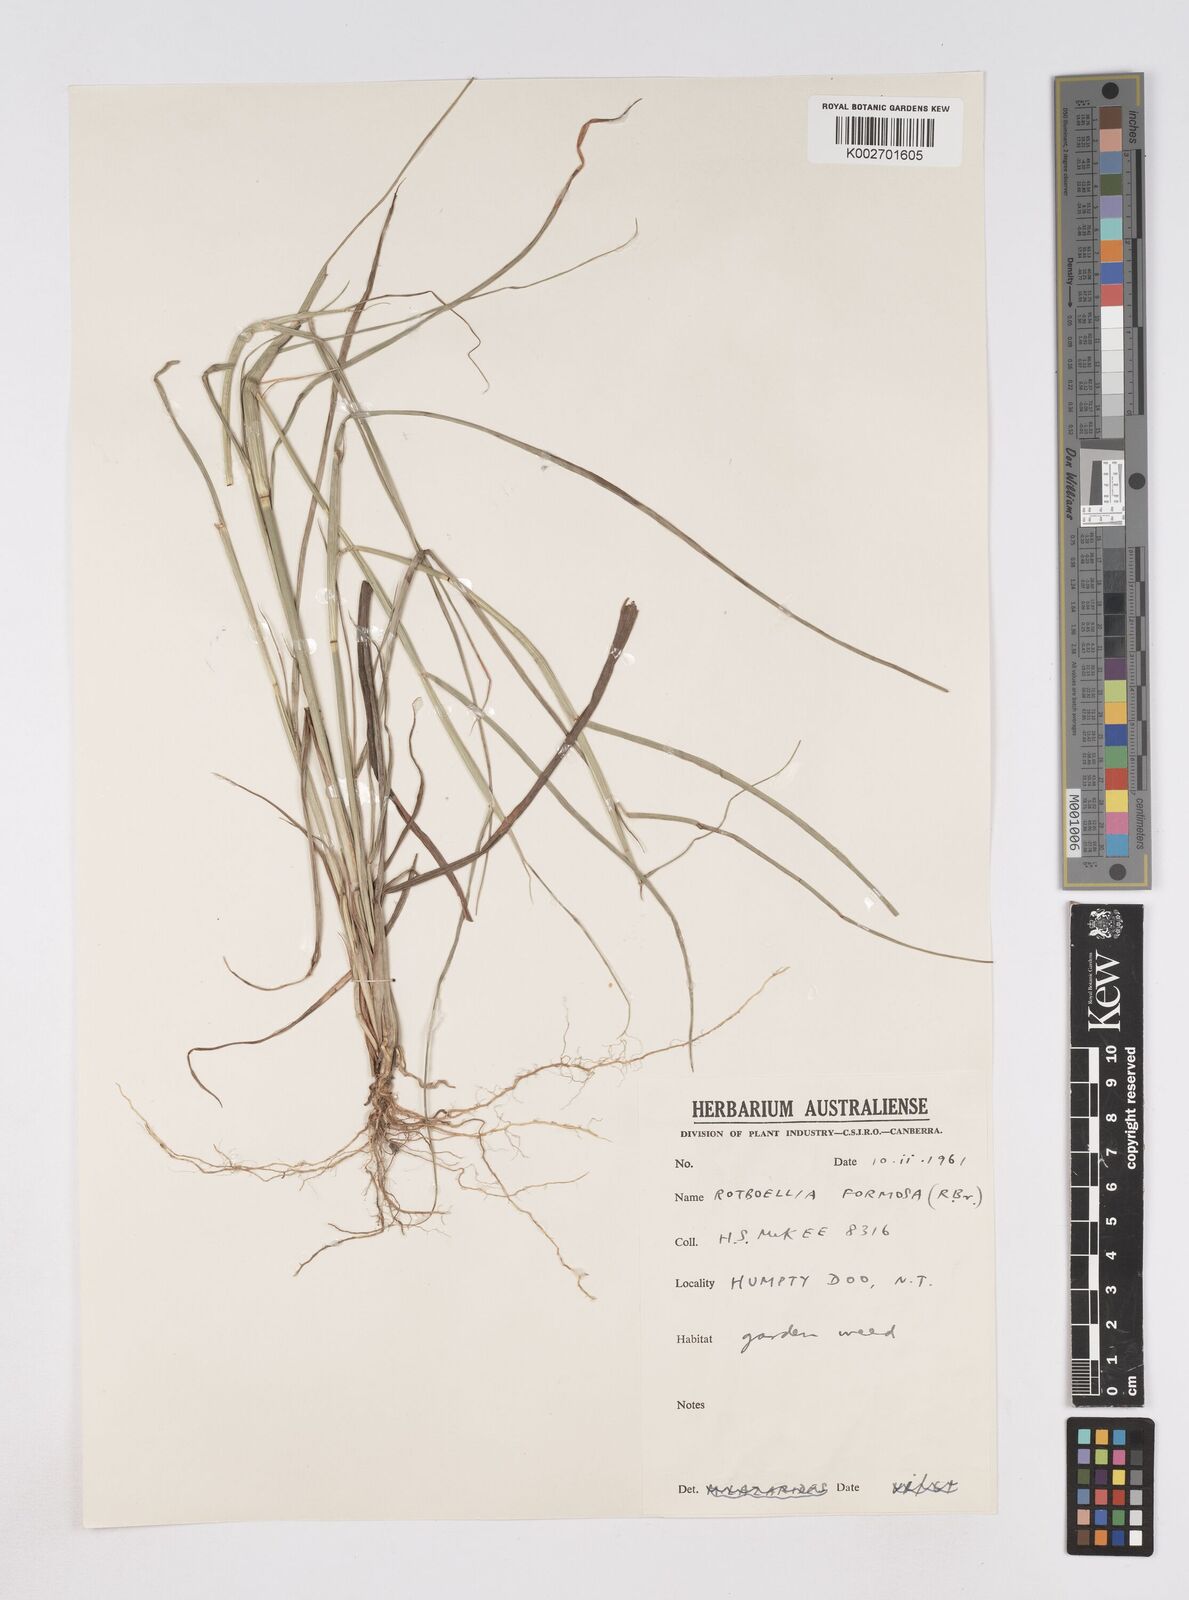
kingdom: Plantae
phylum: Tracheophyta
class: Liliopsida
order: Poales
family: Poaceae
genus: Heteropholis
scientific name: Heteropholis
